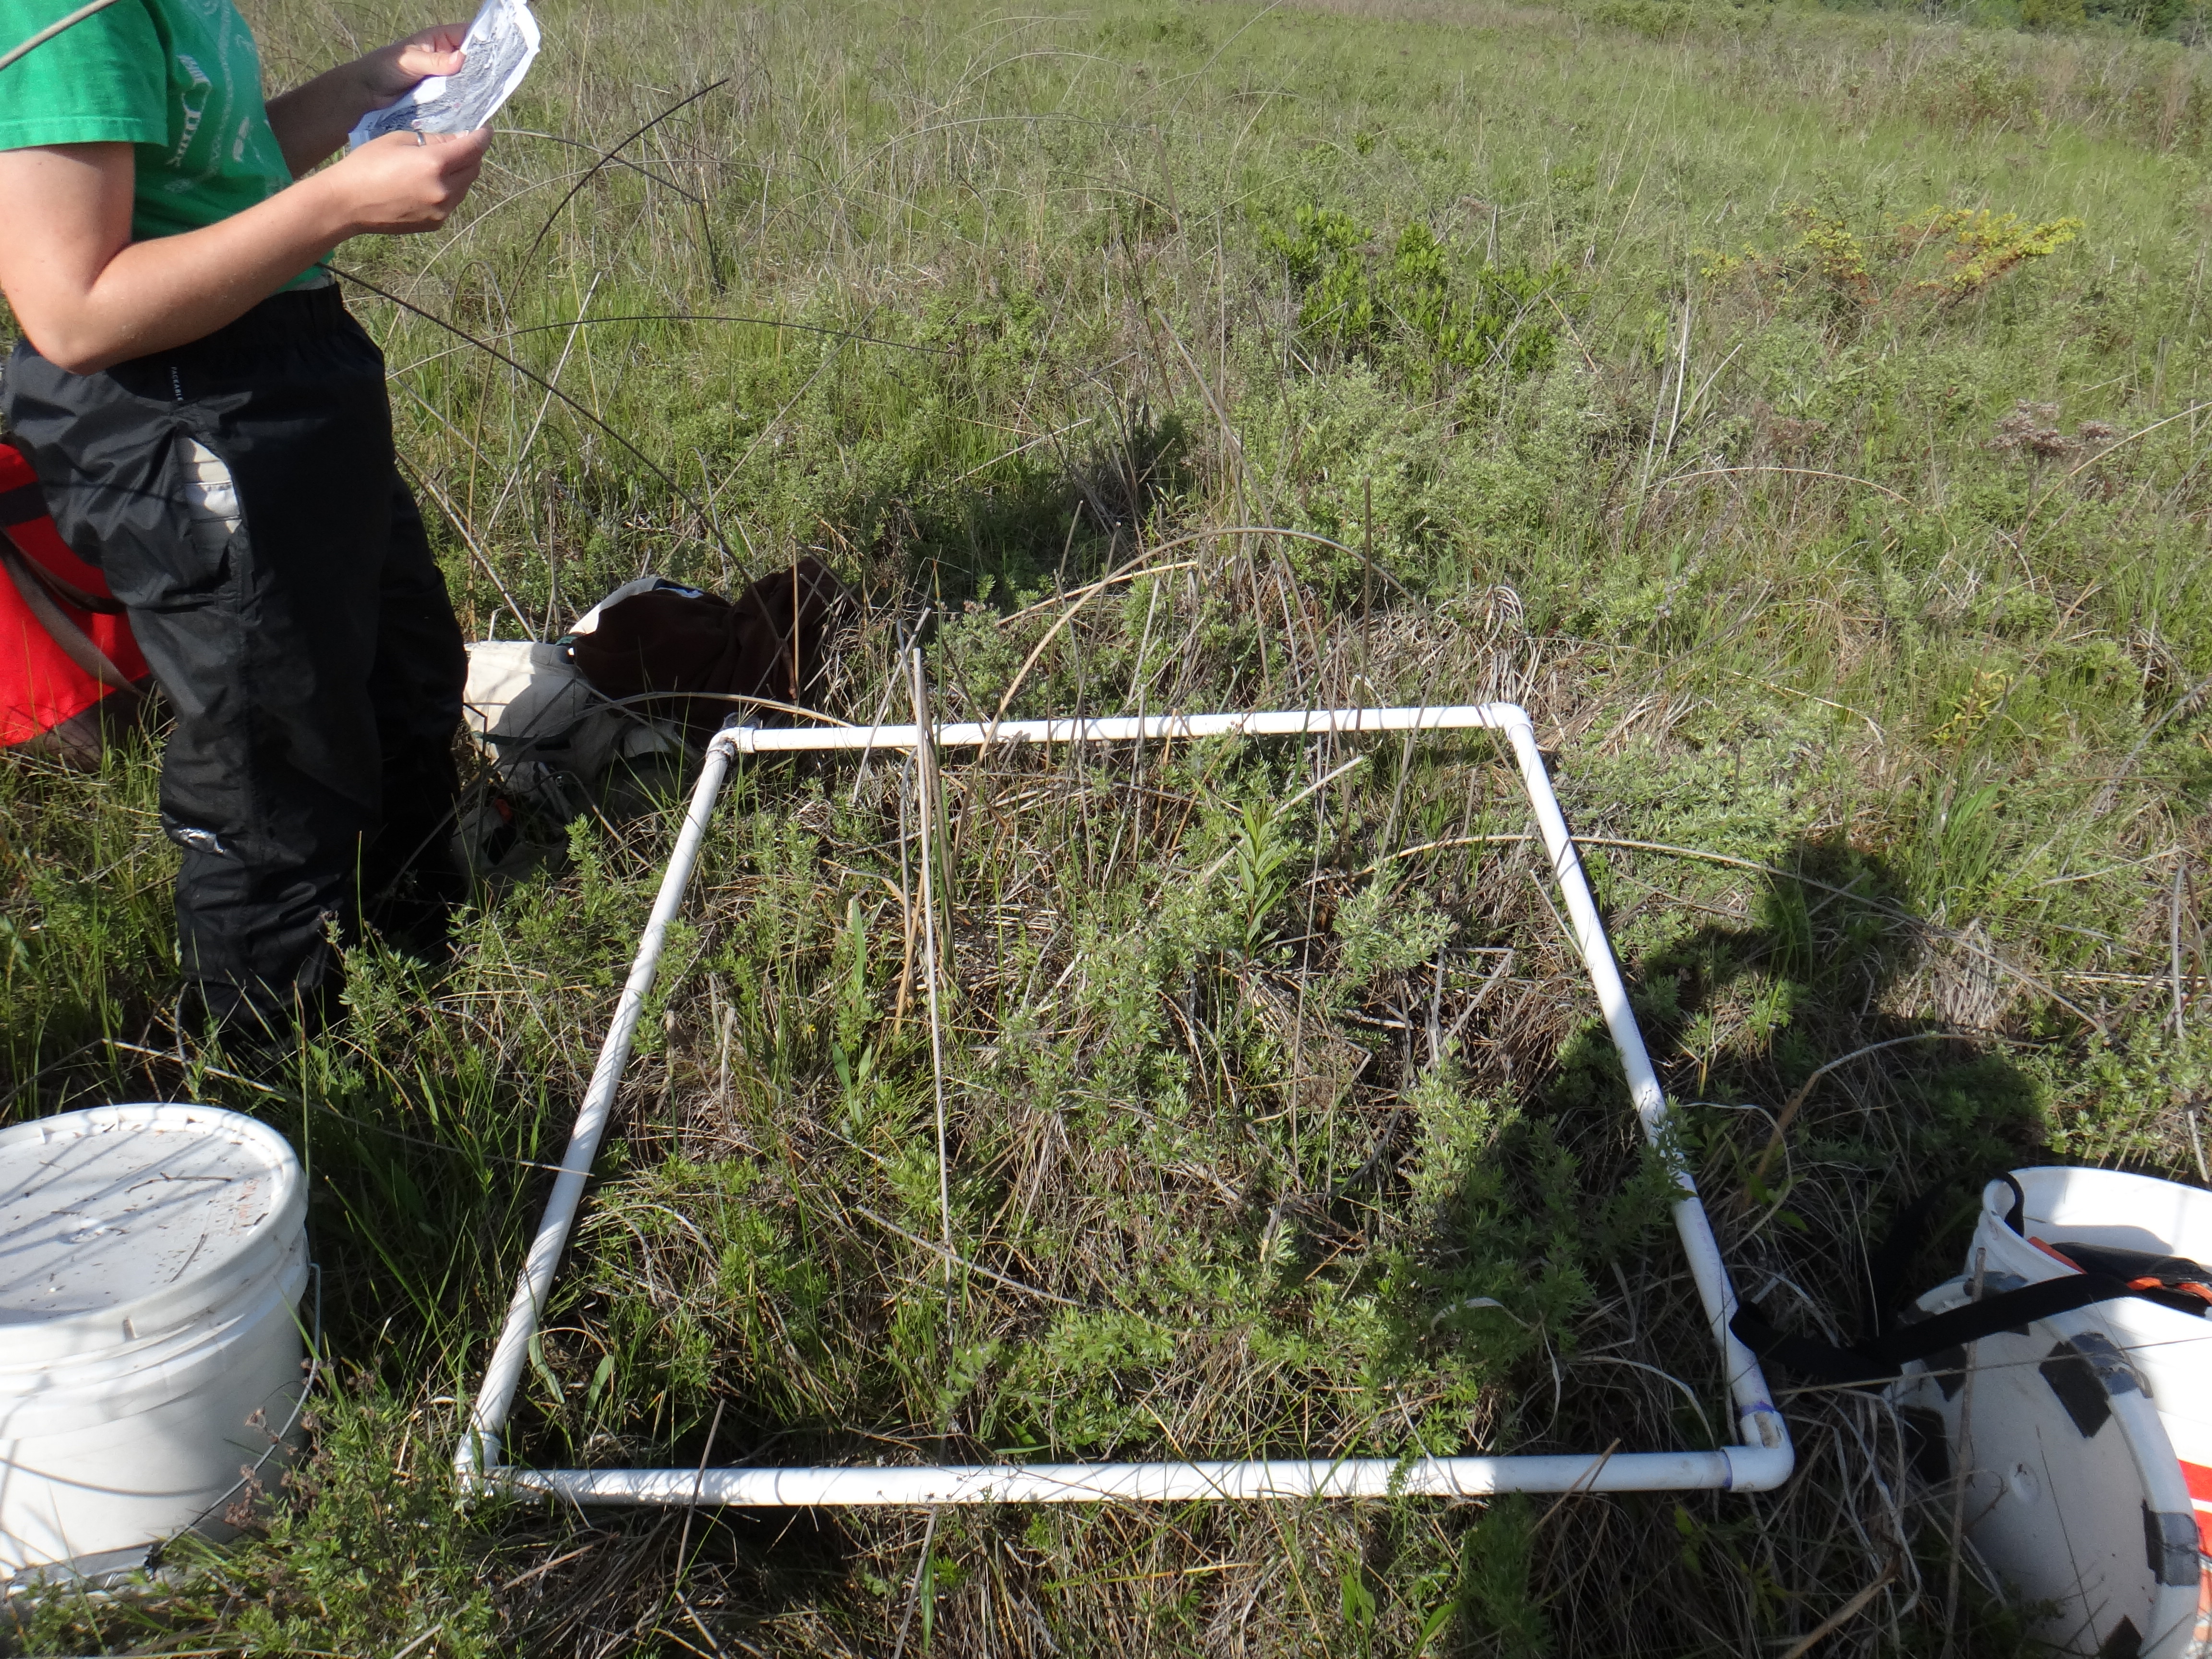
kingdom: Plantae
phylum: Tracheophyta
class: Liliopsida
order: Poales
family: Cyperaceae
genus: Carex
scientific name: Carex tetanica
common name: Rigid sedge
